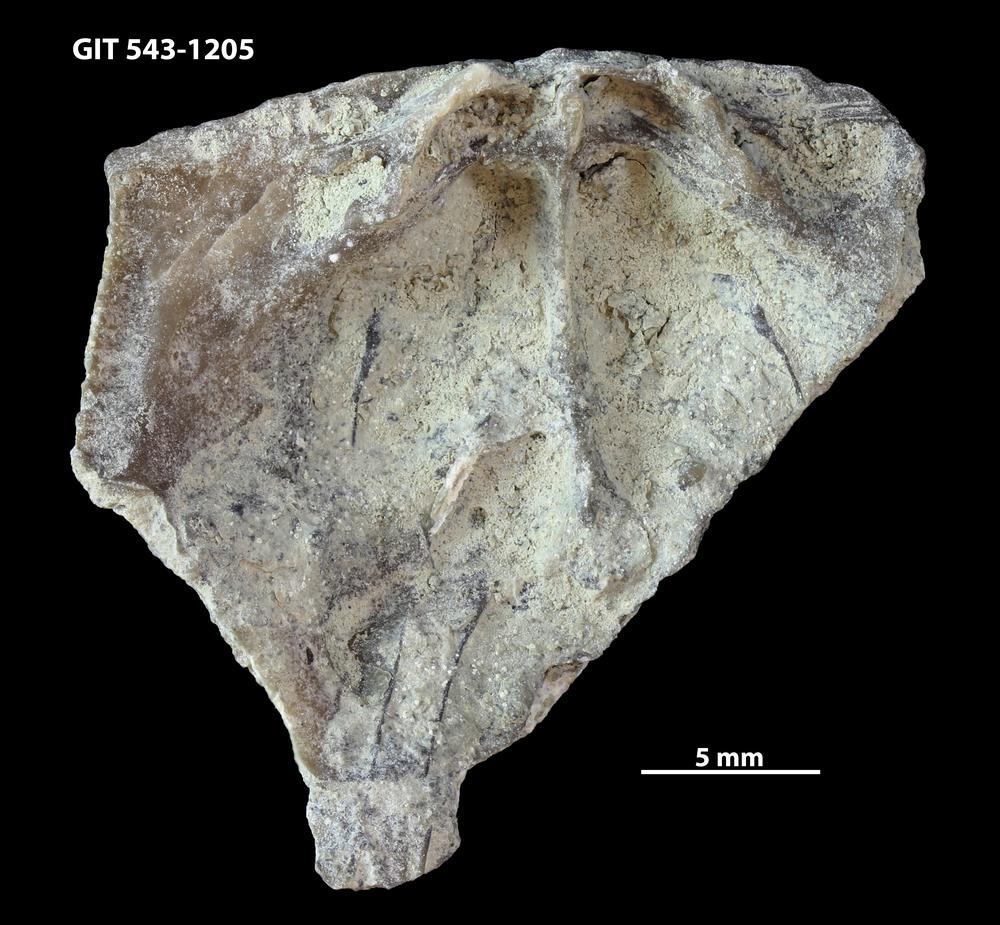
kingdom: Animalia
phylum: Brachiopoda
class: Rhynchonellata
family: Clitambonitidae
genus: Ilmarinia
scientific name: Ilmarinia Orthisina sinuata
